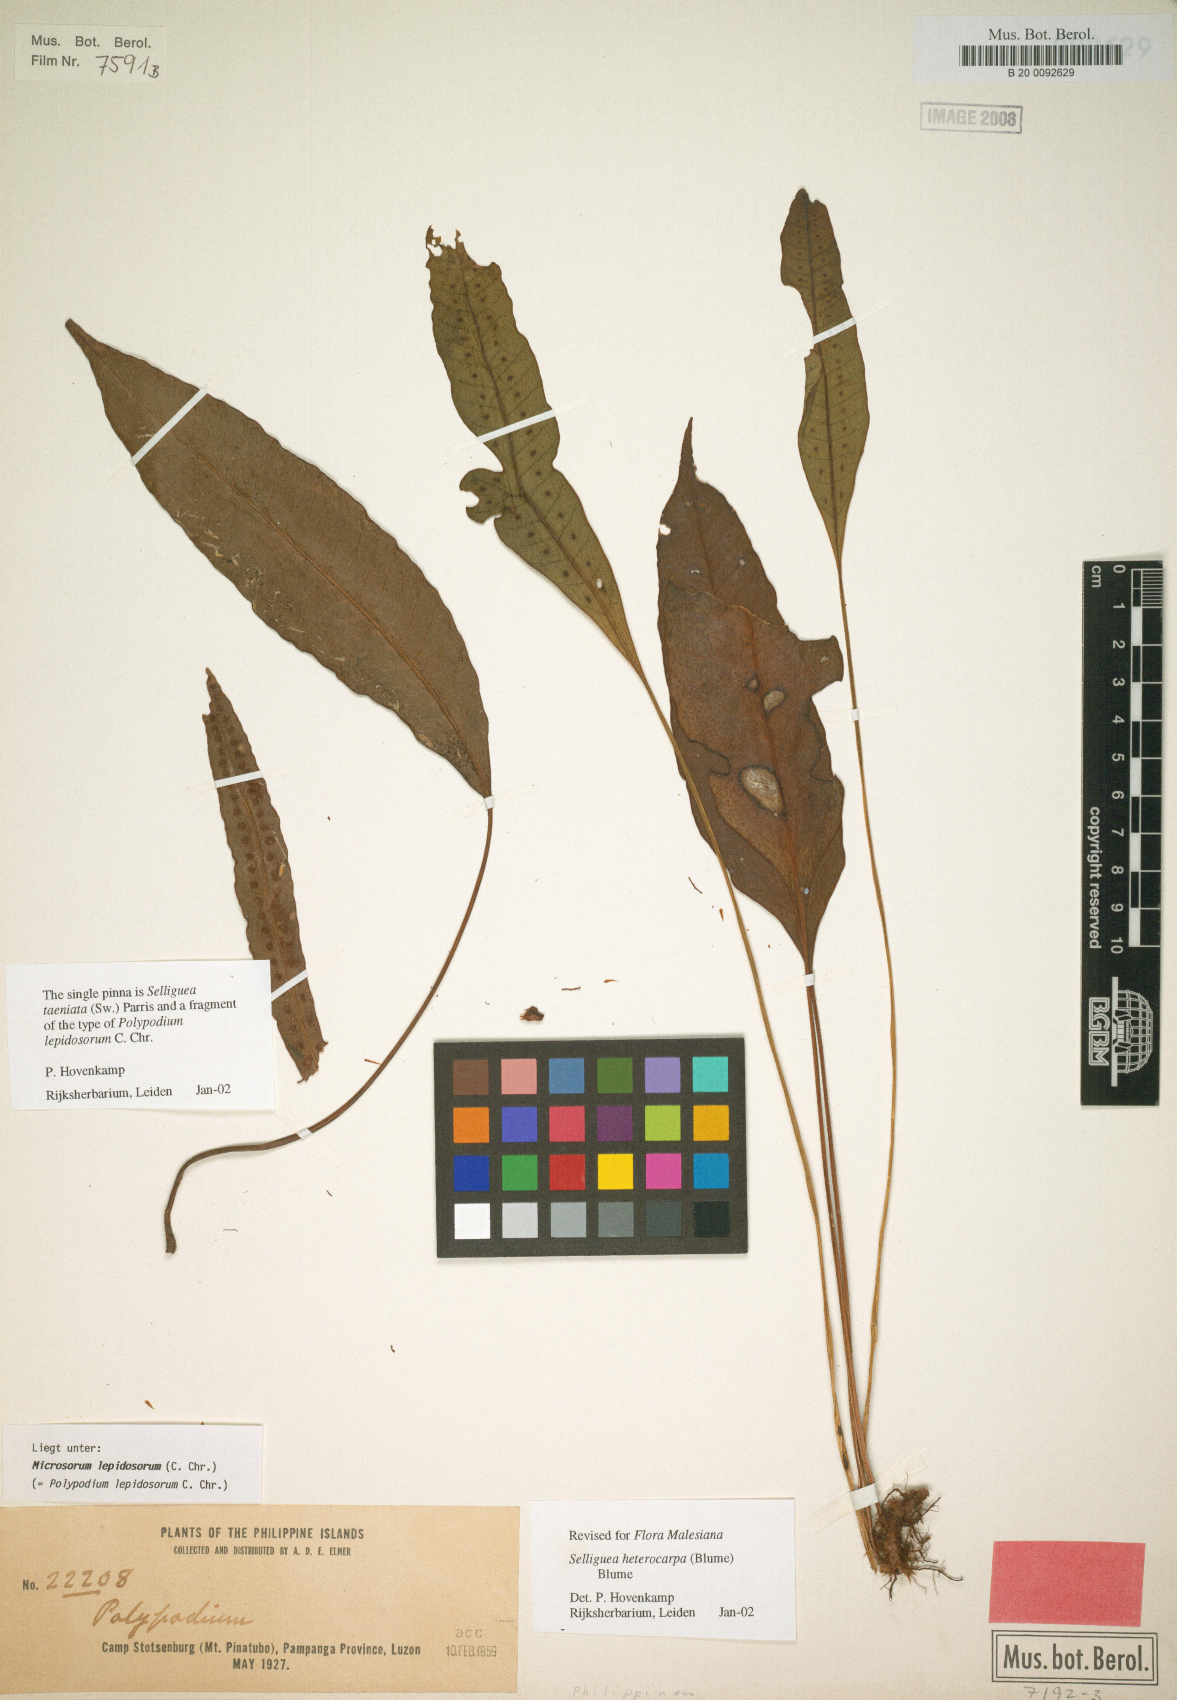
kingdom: Plantae
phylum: Tracheophyta
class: Polypodiopsida
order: Polypodiales
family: Polypodiaceae
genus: Selliguea
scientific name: Selliguea taeniata
